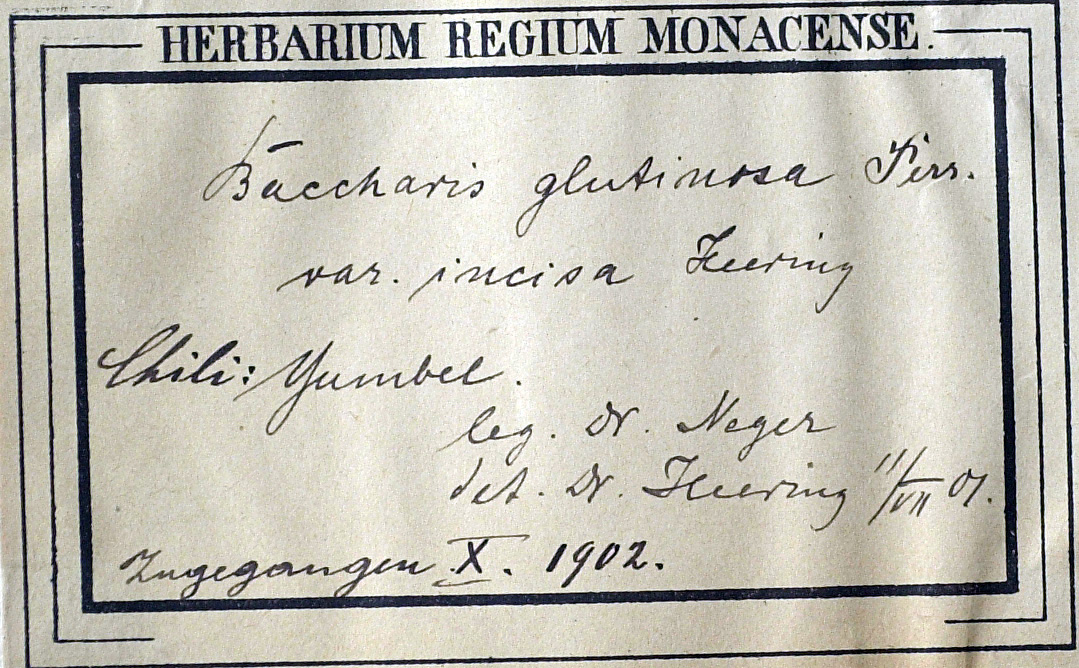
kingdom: Plantae
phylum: Tracheophyta
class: Magnoliopsida
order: Asterales
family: Asteraceae
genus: Baccharis
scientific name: Baccharis salicifolia
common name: Sticky baccharis
